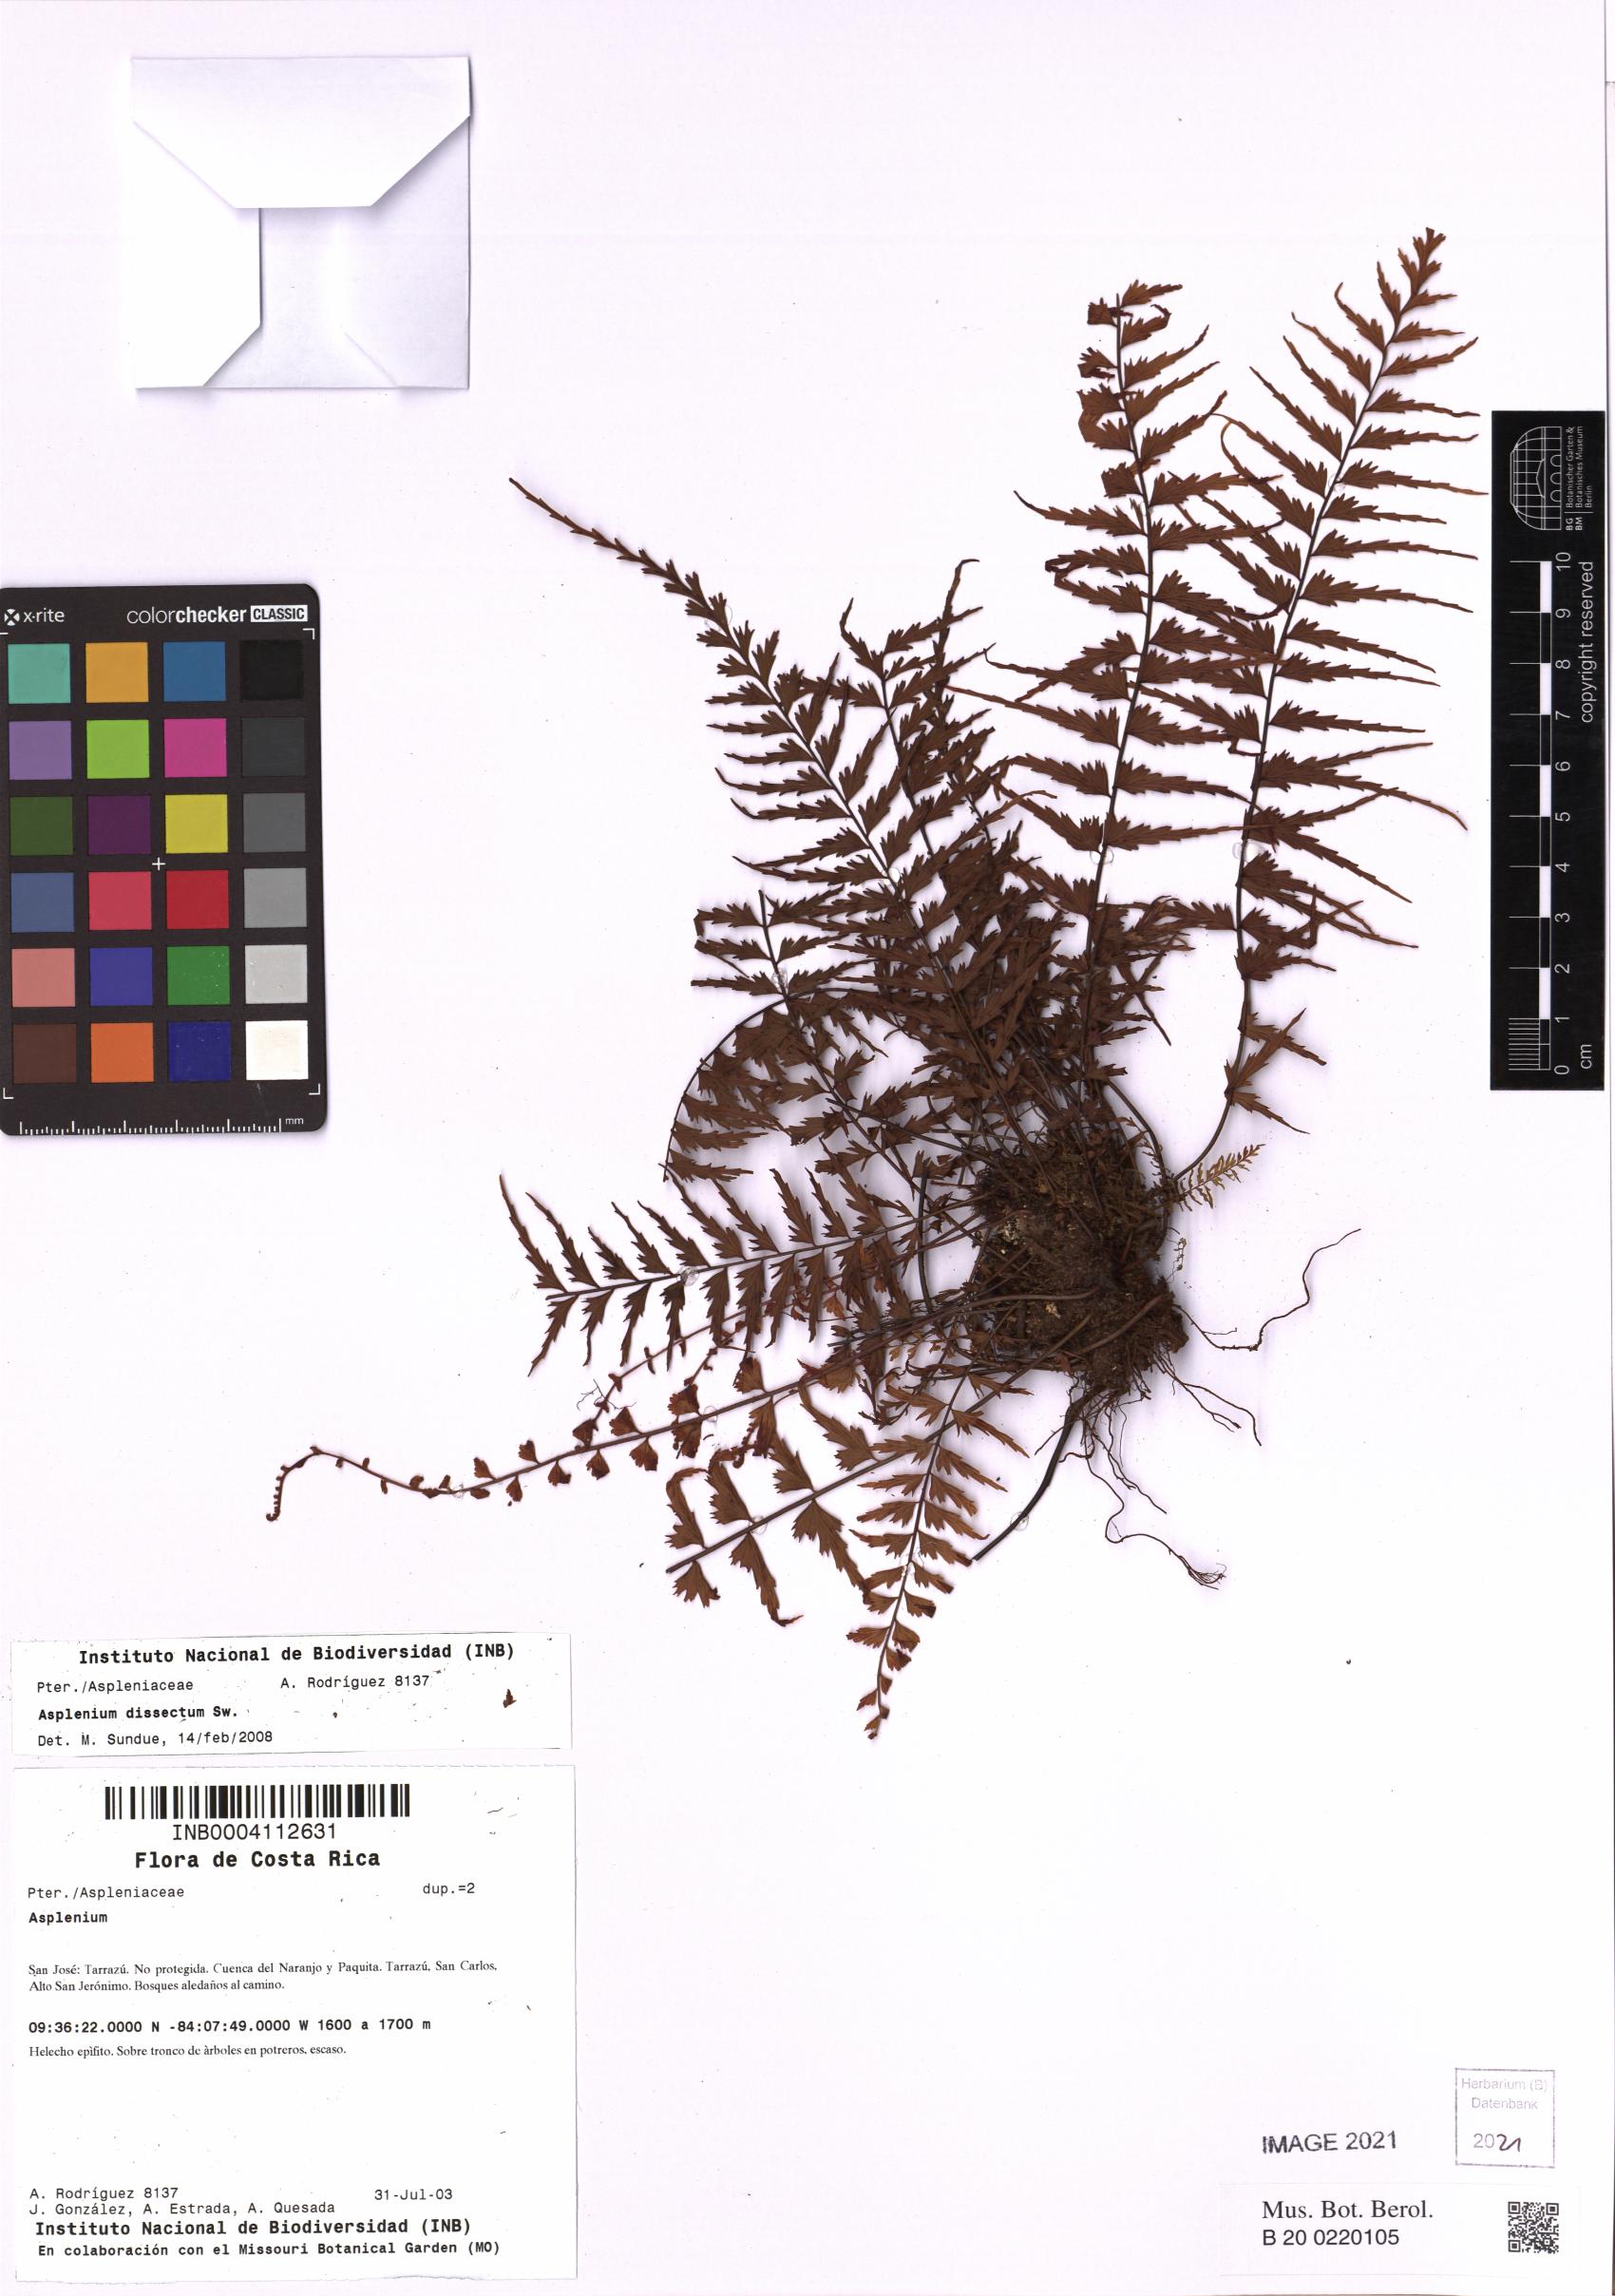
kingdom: Plantae
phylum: Tracheophyta
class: Polypodiopsida
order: Polypodiales
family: Aspleniaceae
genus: Asplenium
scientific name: Asplenium dissectum
